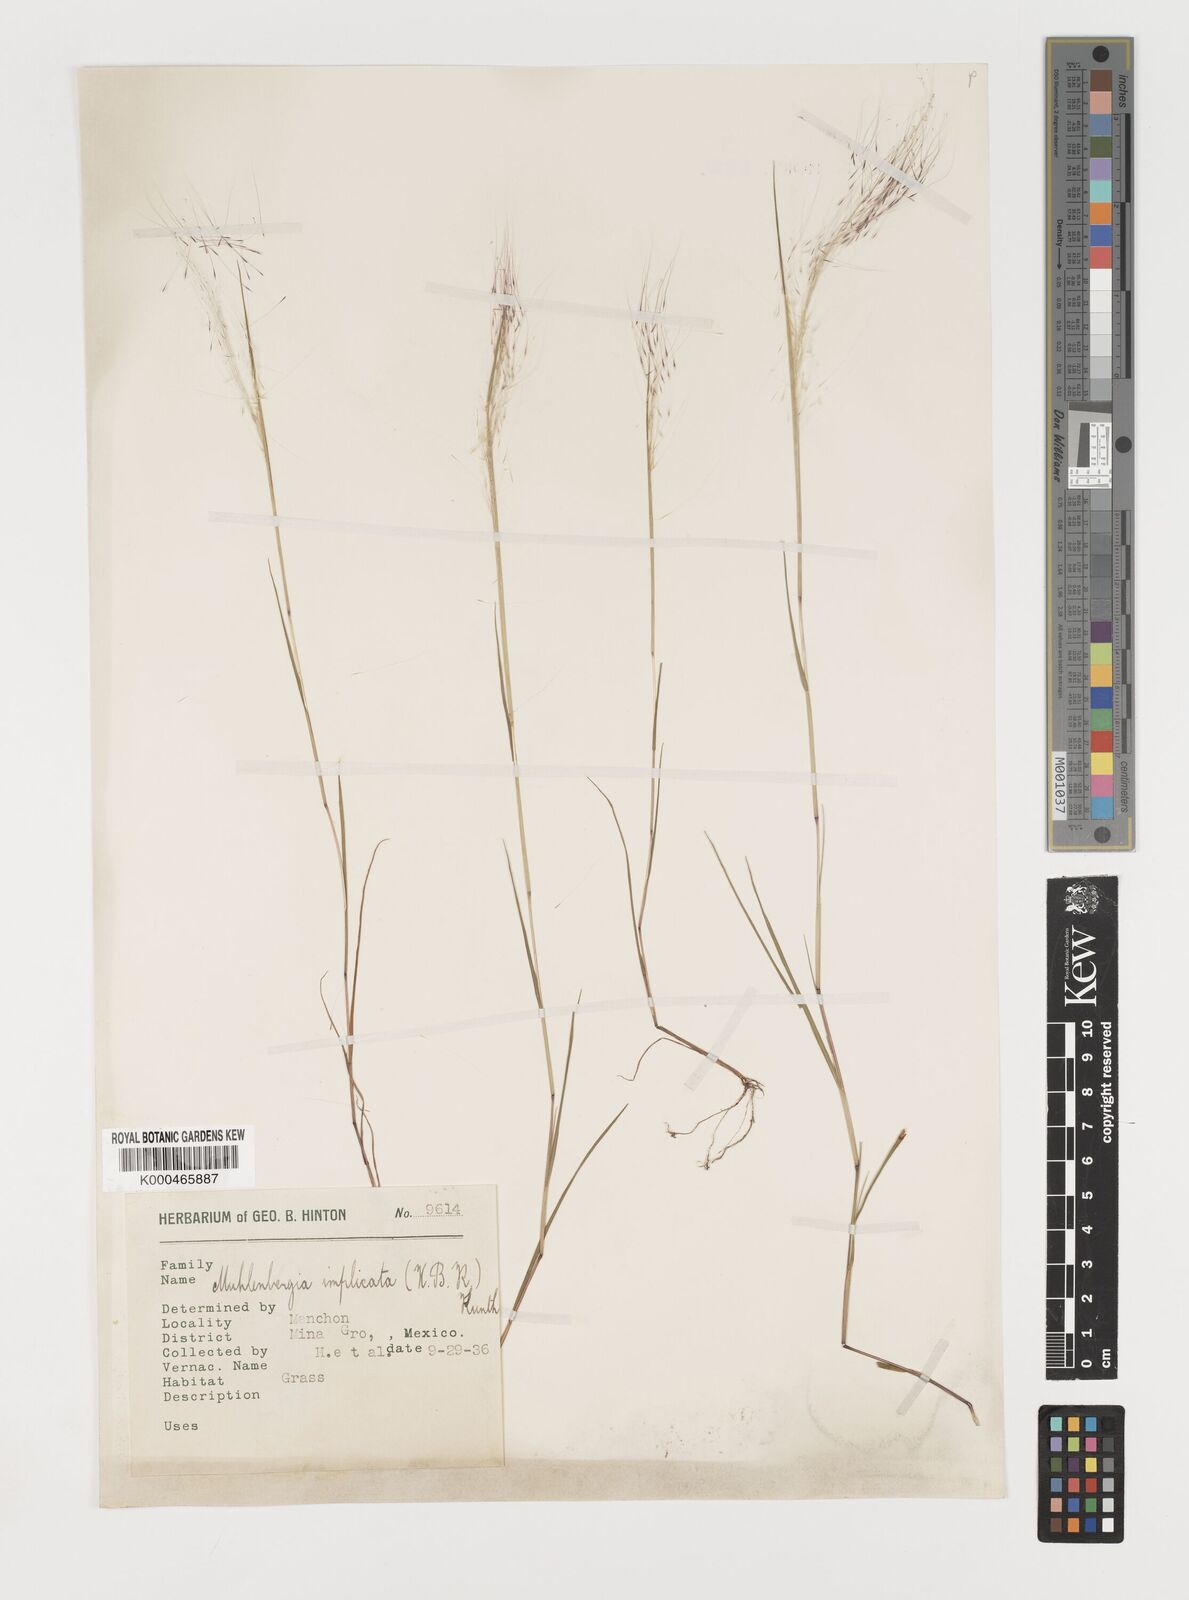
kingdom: Plantae
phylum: Tracheophyta
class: Liliopsida
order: Poales
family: Poaceae
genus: Muhlenbergia
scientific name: Muhlenbergia implicata
